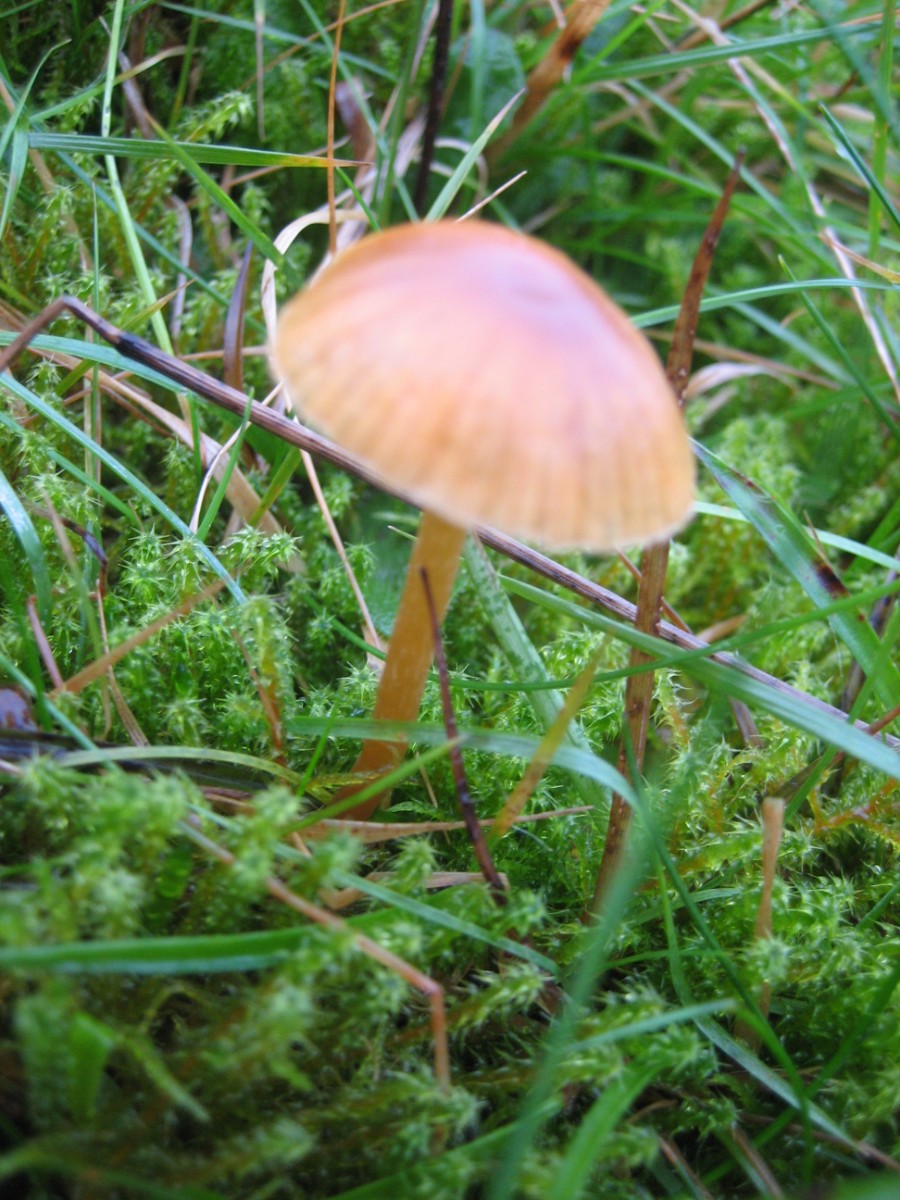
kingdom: Fungi
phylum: Basidiomycota
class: Agaricomycetes
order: Agaricales
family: Hymenogastraceae
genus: Galerina
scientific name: Galerina
